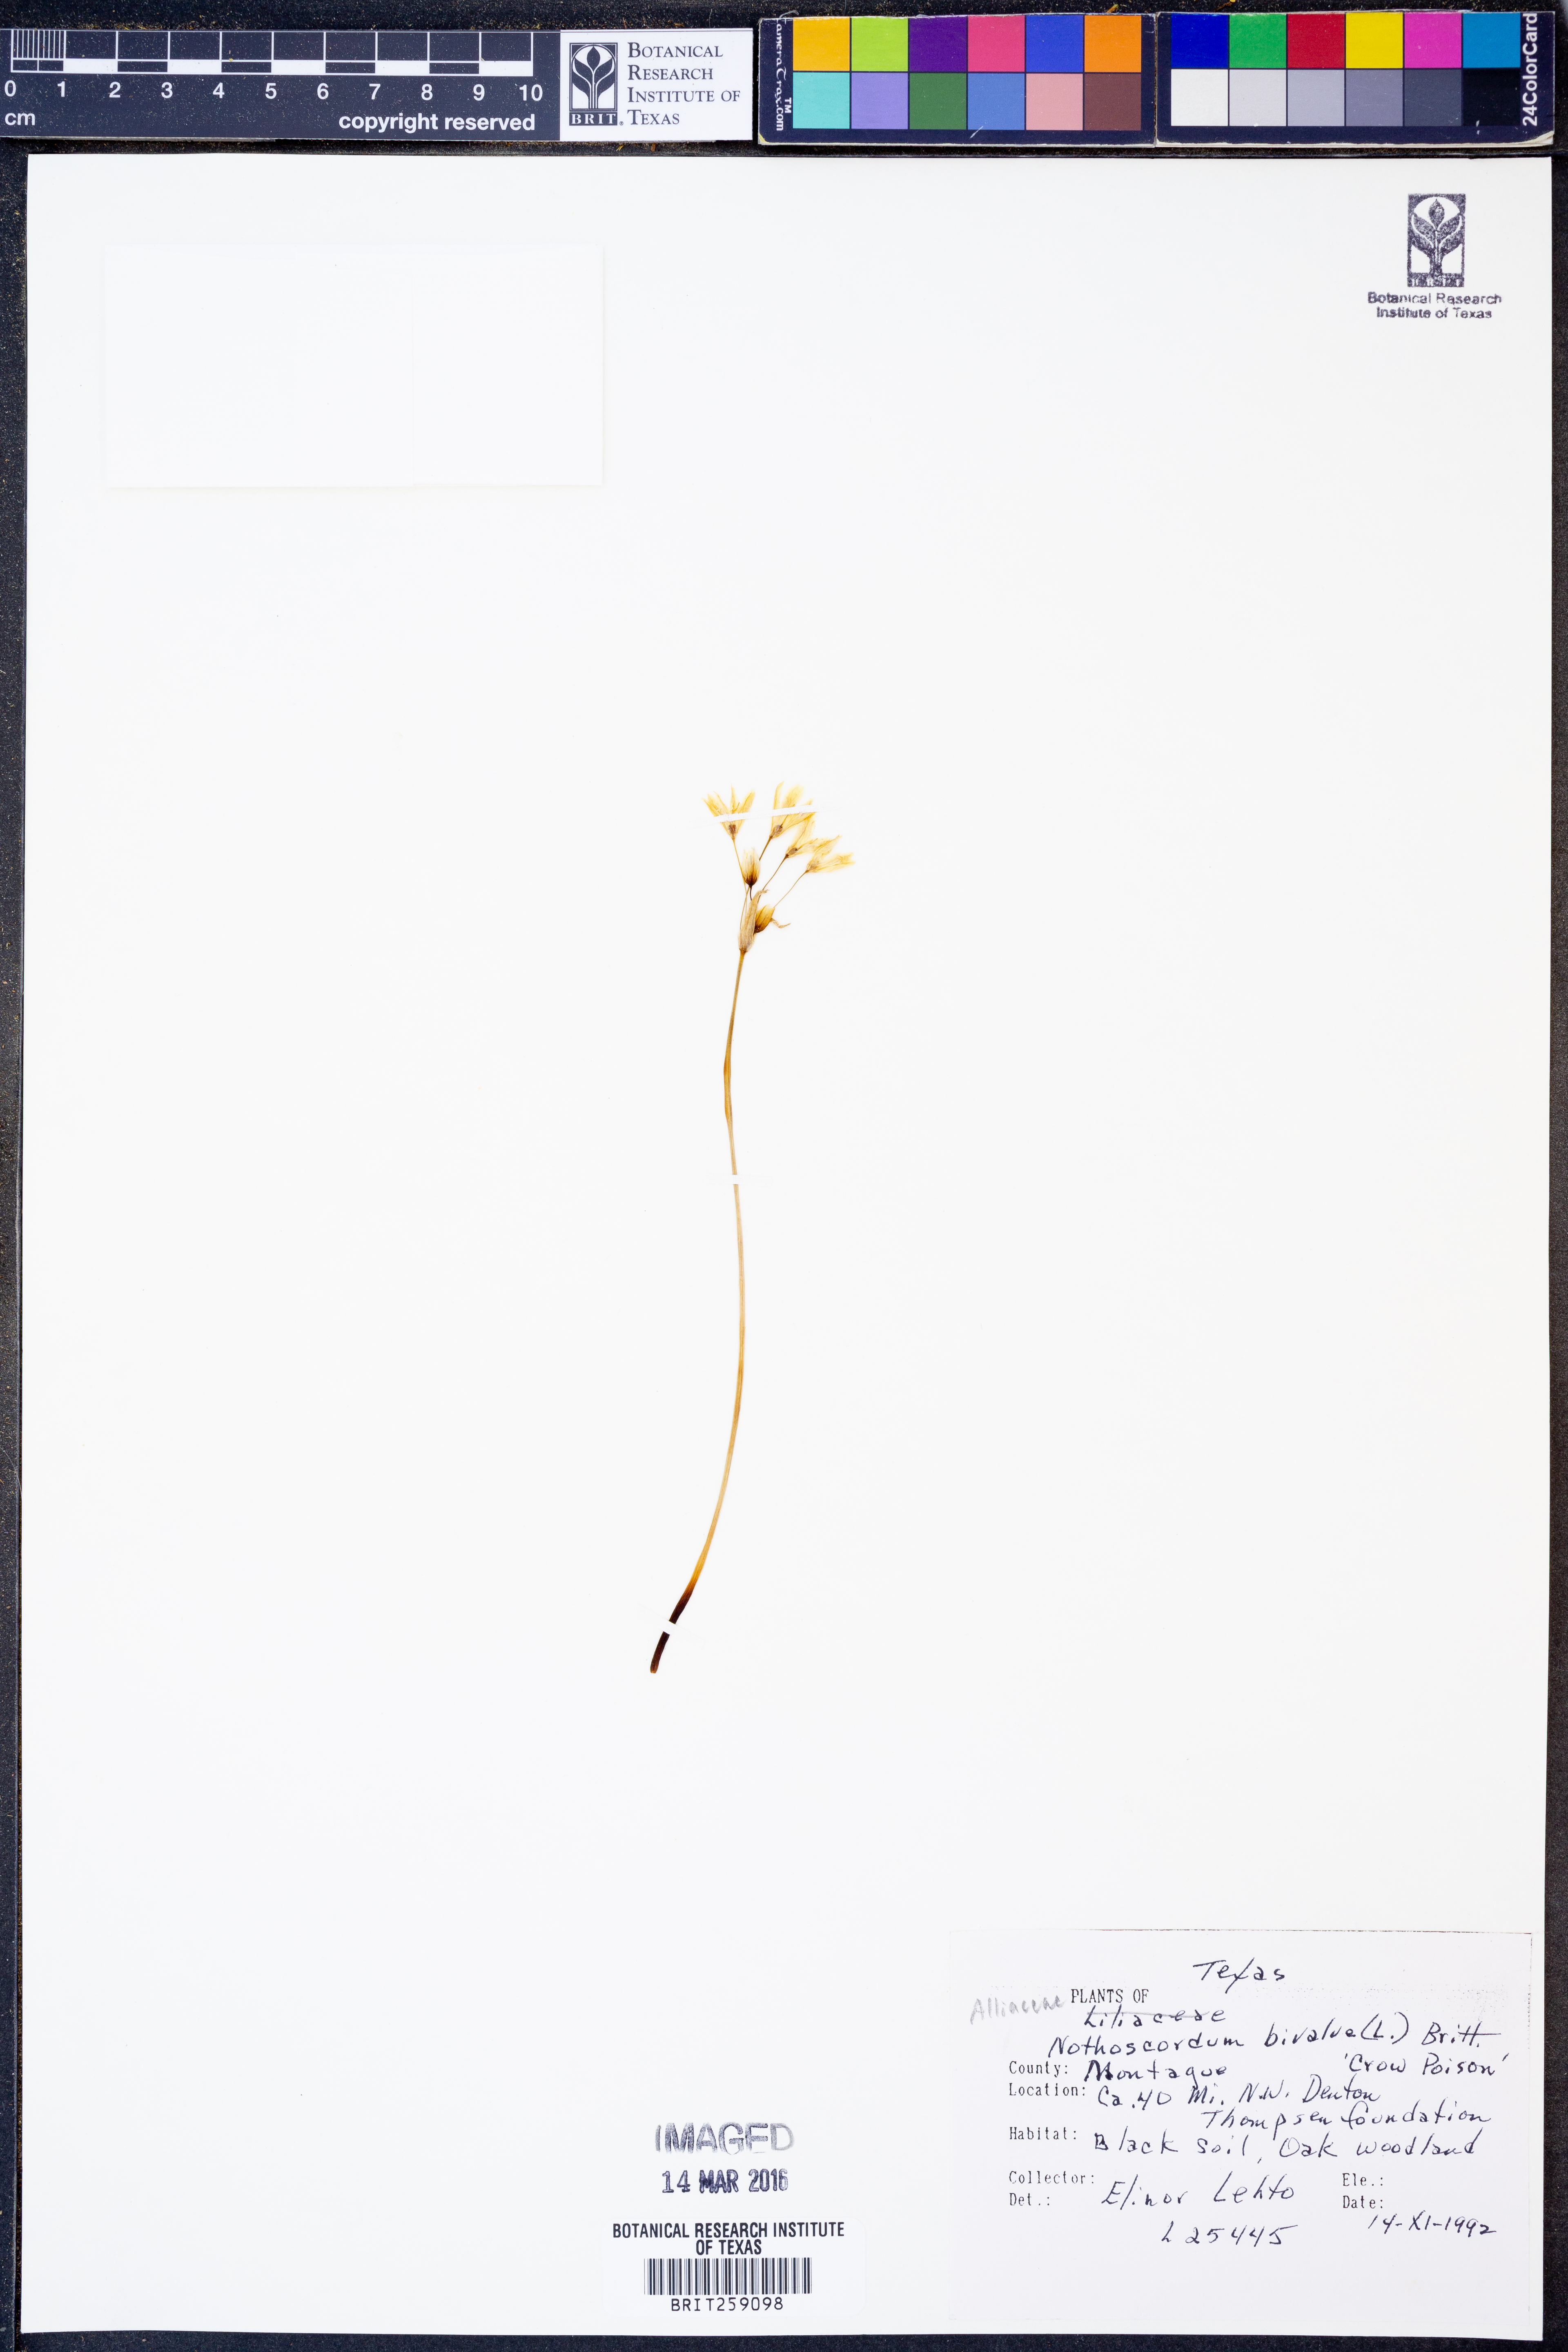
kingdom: Plantae
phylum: Tracheophyta
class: Liliopsida
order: Asparagales
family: Amaryllidaceae
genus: Nothoscordum
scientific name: Nothoscordum bivalve
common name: Crow-poison
